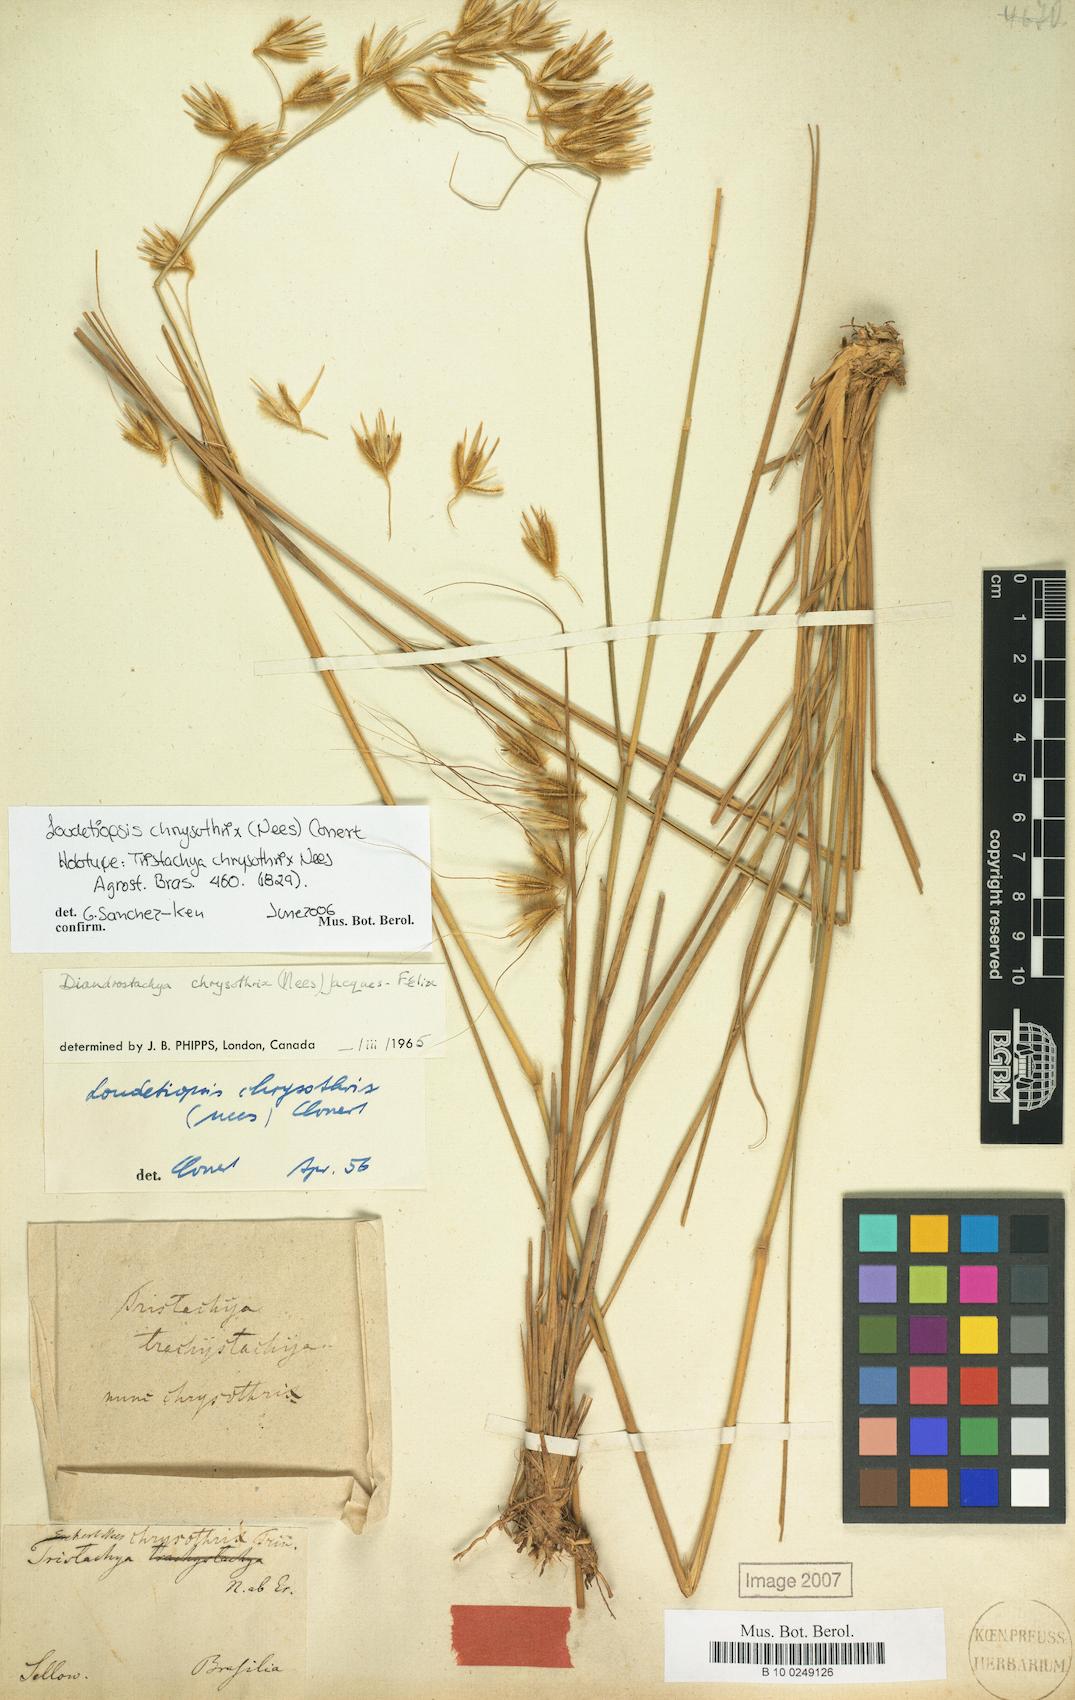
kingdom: Plantae
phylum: Tracheophyta
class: Liliopsida
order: Poales
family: Poaceae
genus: Loudetiopsis
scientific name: Loudetiopsis chrysothrix
